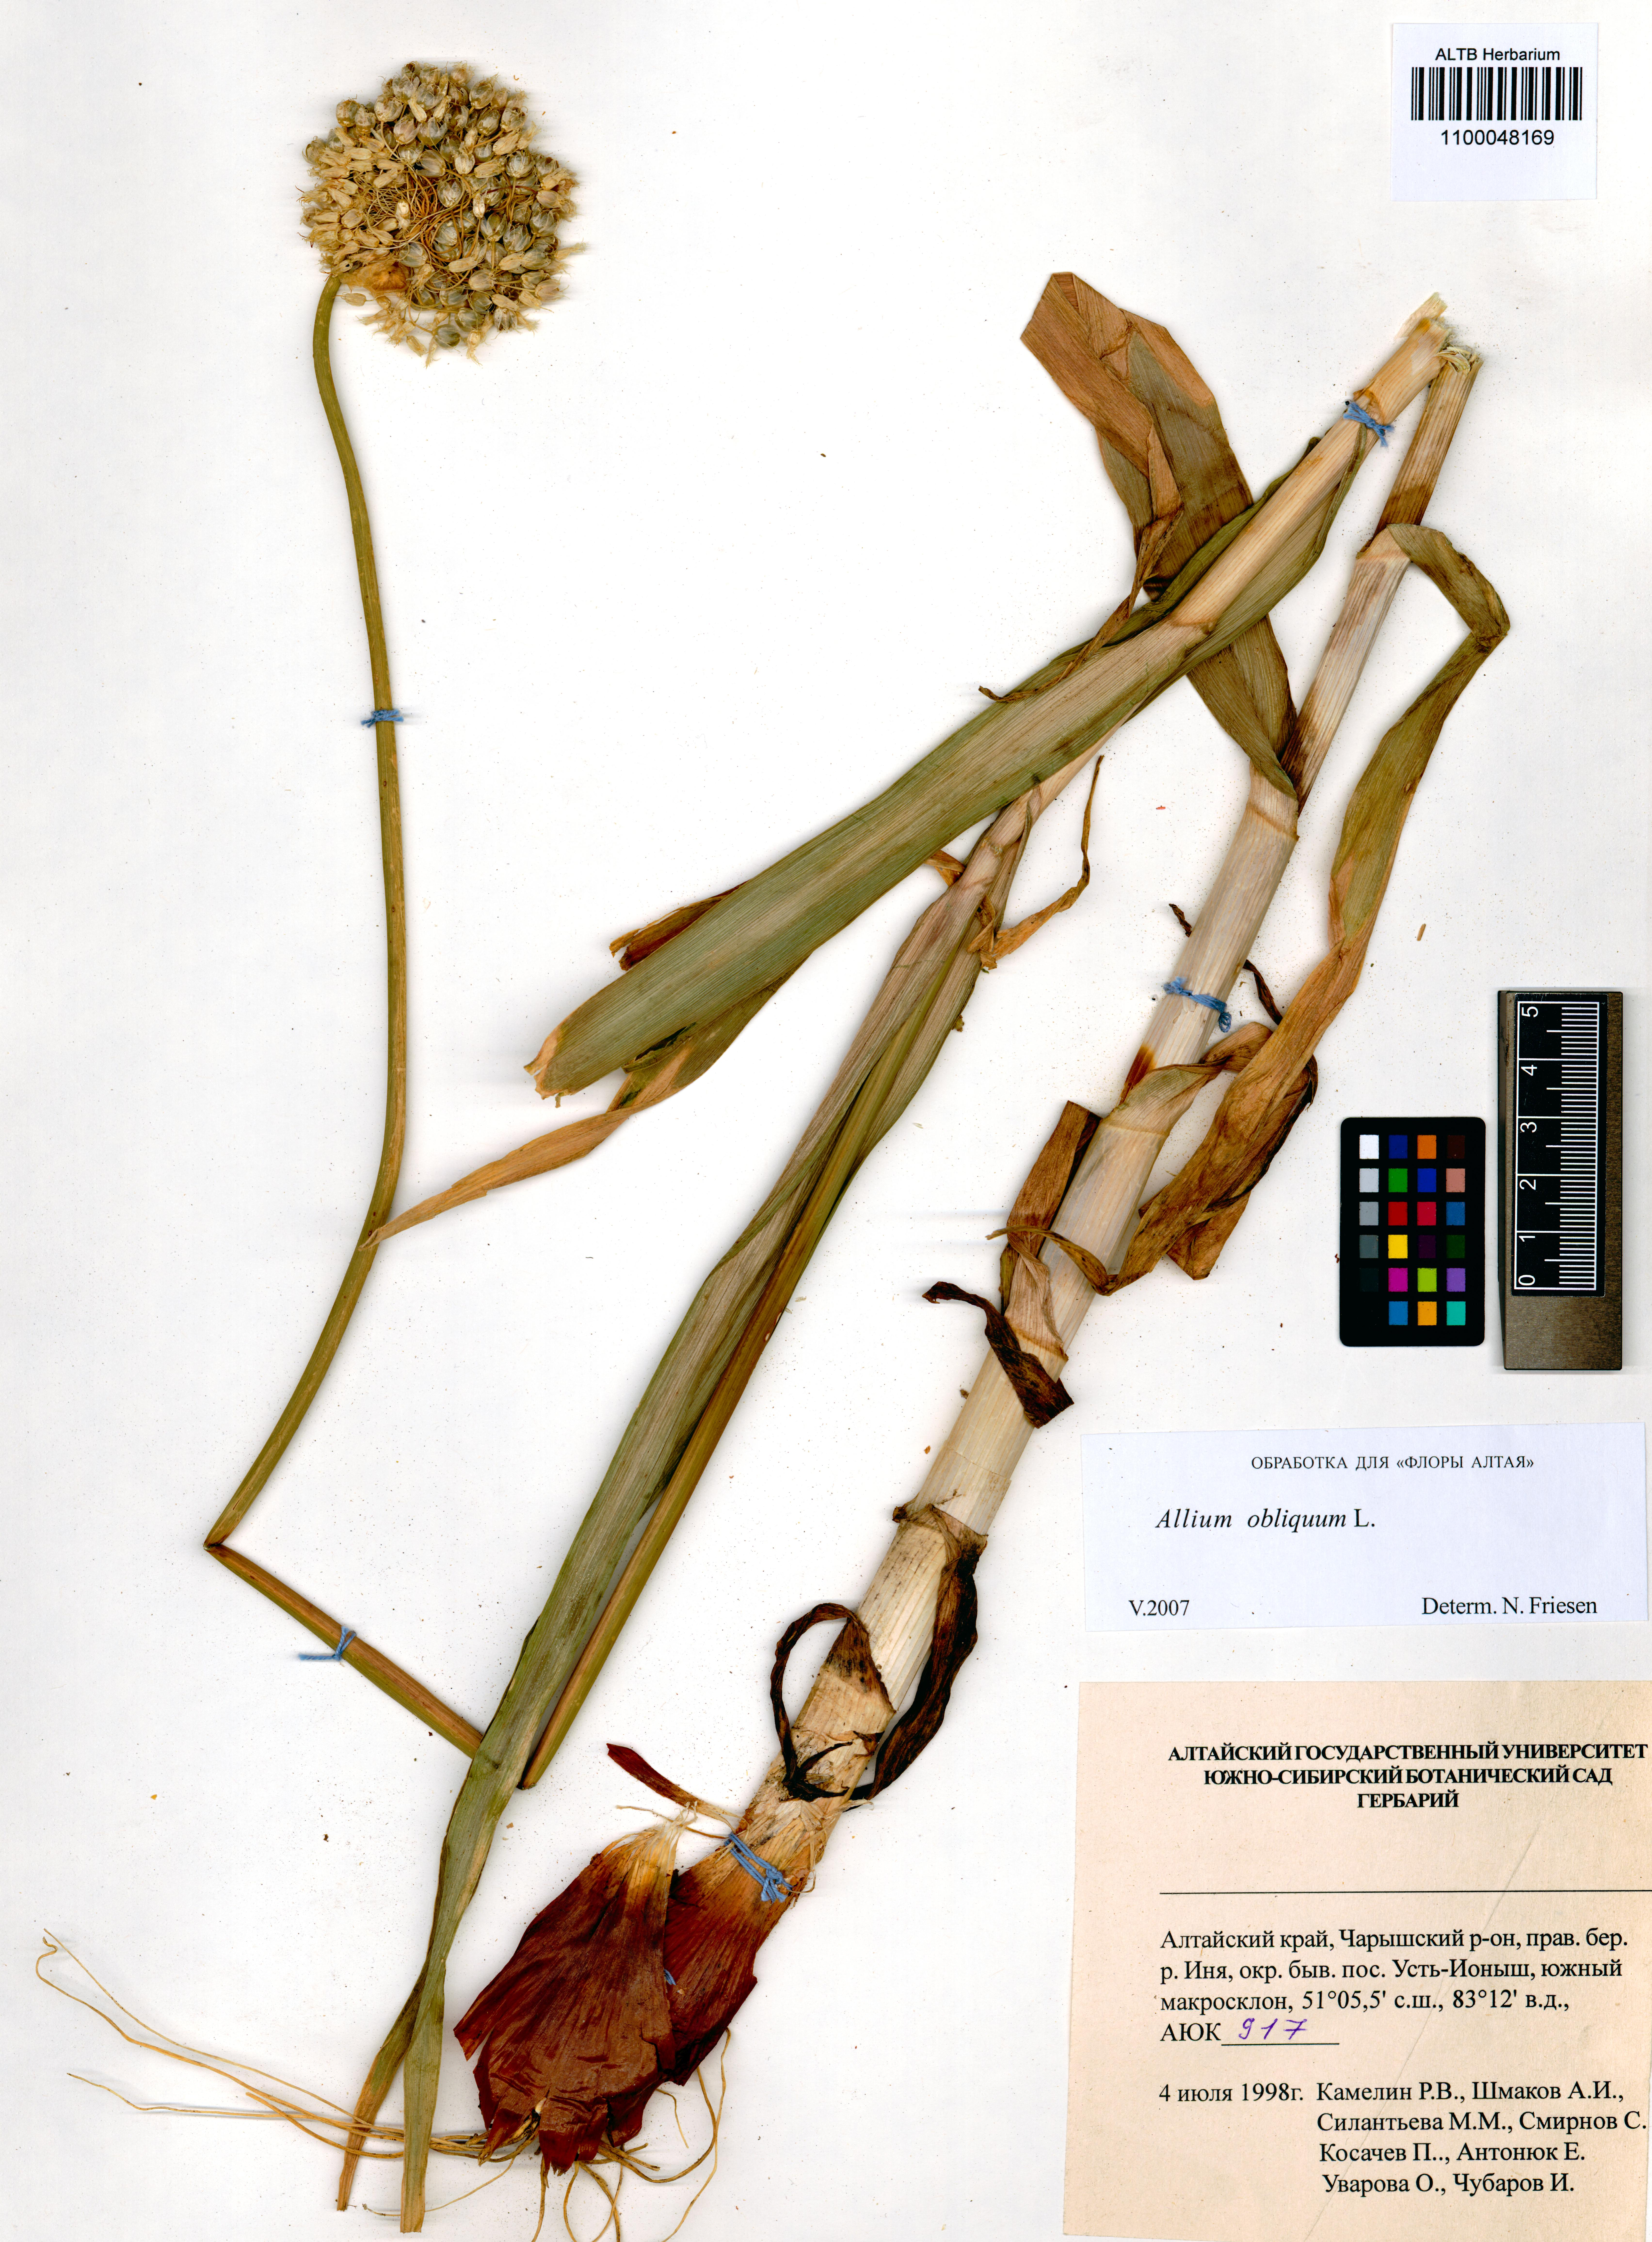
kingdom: Plantae
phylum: Tracheophyta
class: Liliopsida
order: Asparagales
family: Amaryllidaceae
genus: Allium
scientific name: Allium obliquum
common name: Oblique onion
